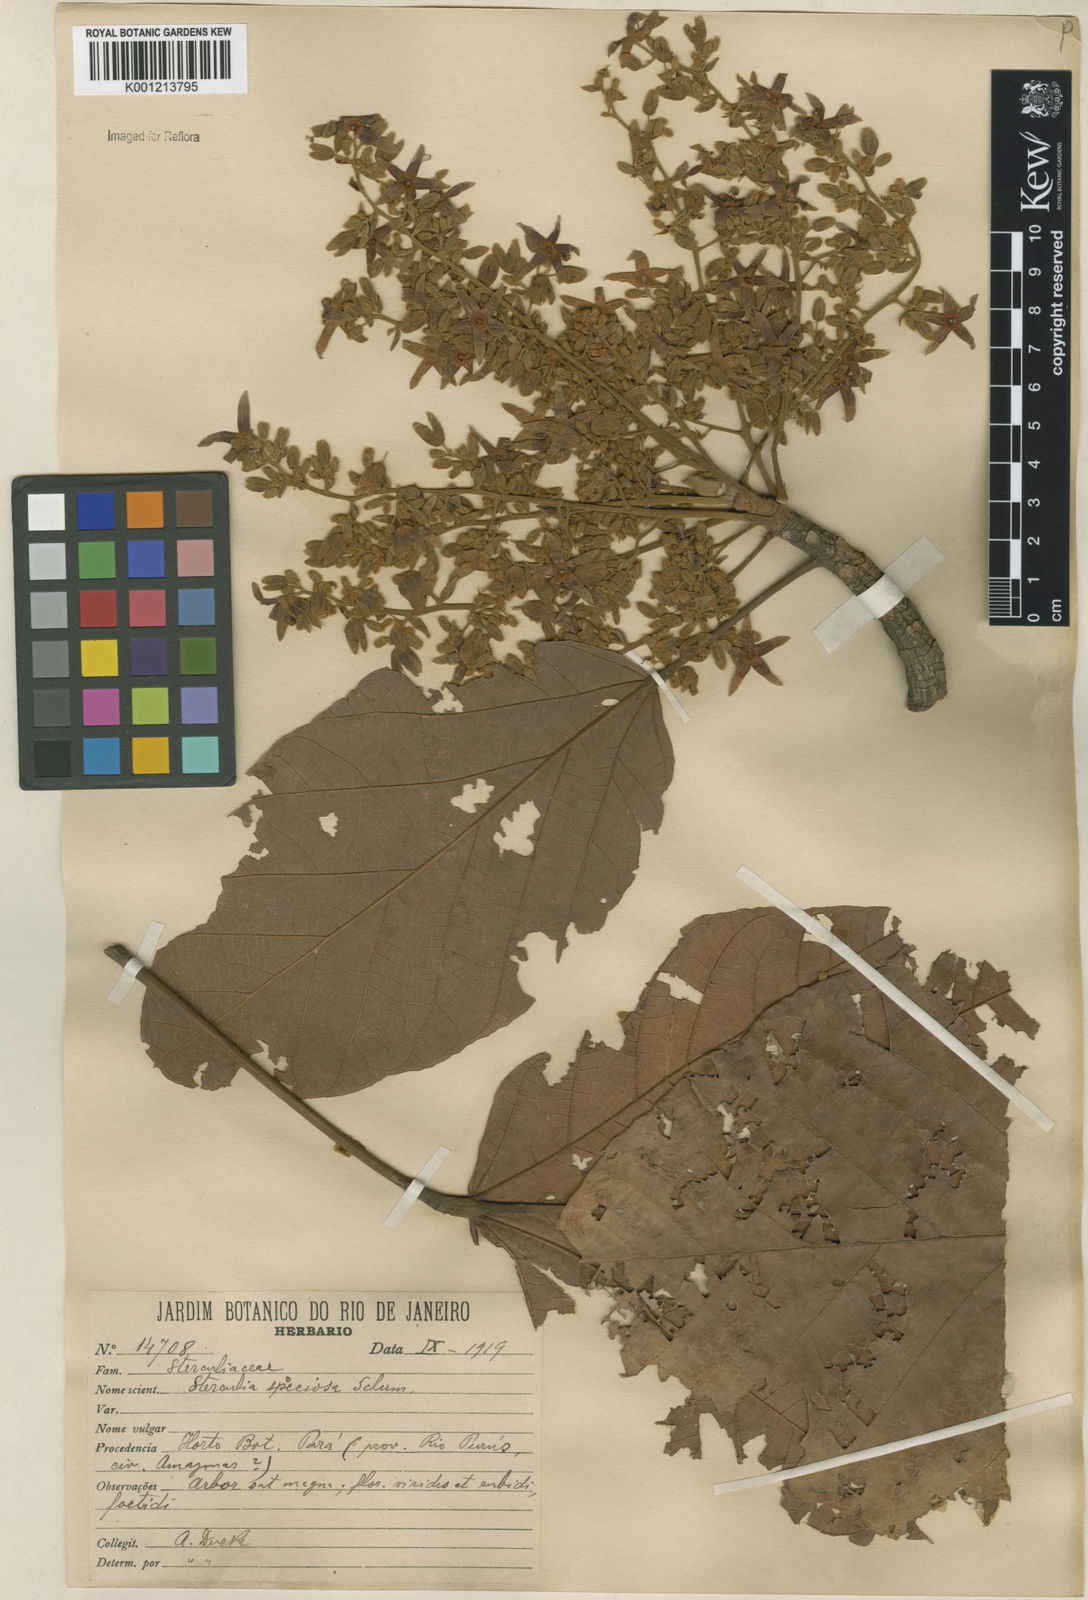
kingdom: Plantae
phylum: Tracheophyta
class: Magnoliopsida
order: Malvales
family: Malvaceae
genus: Sterculia
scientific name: Sterculia speciosa
